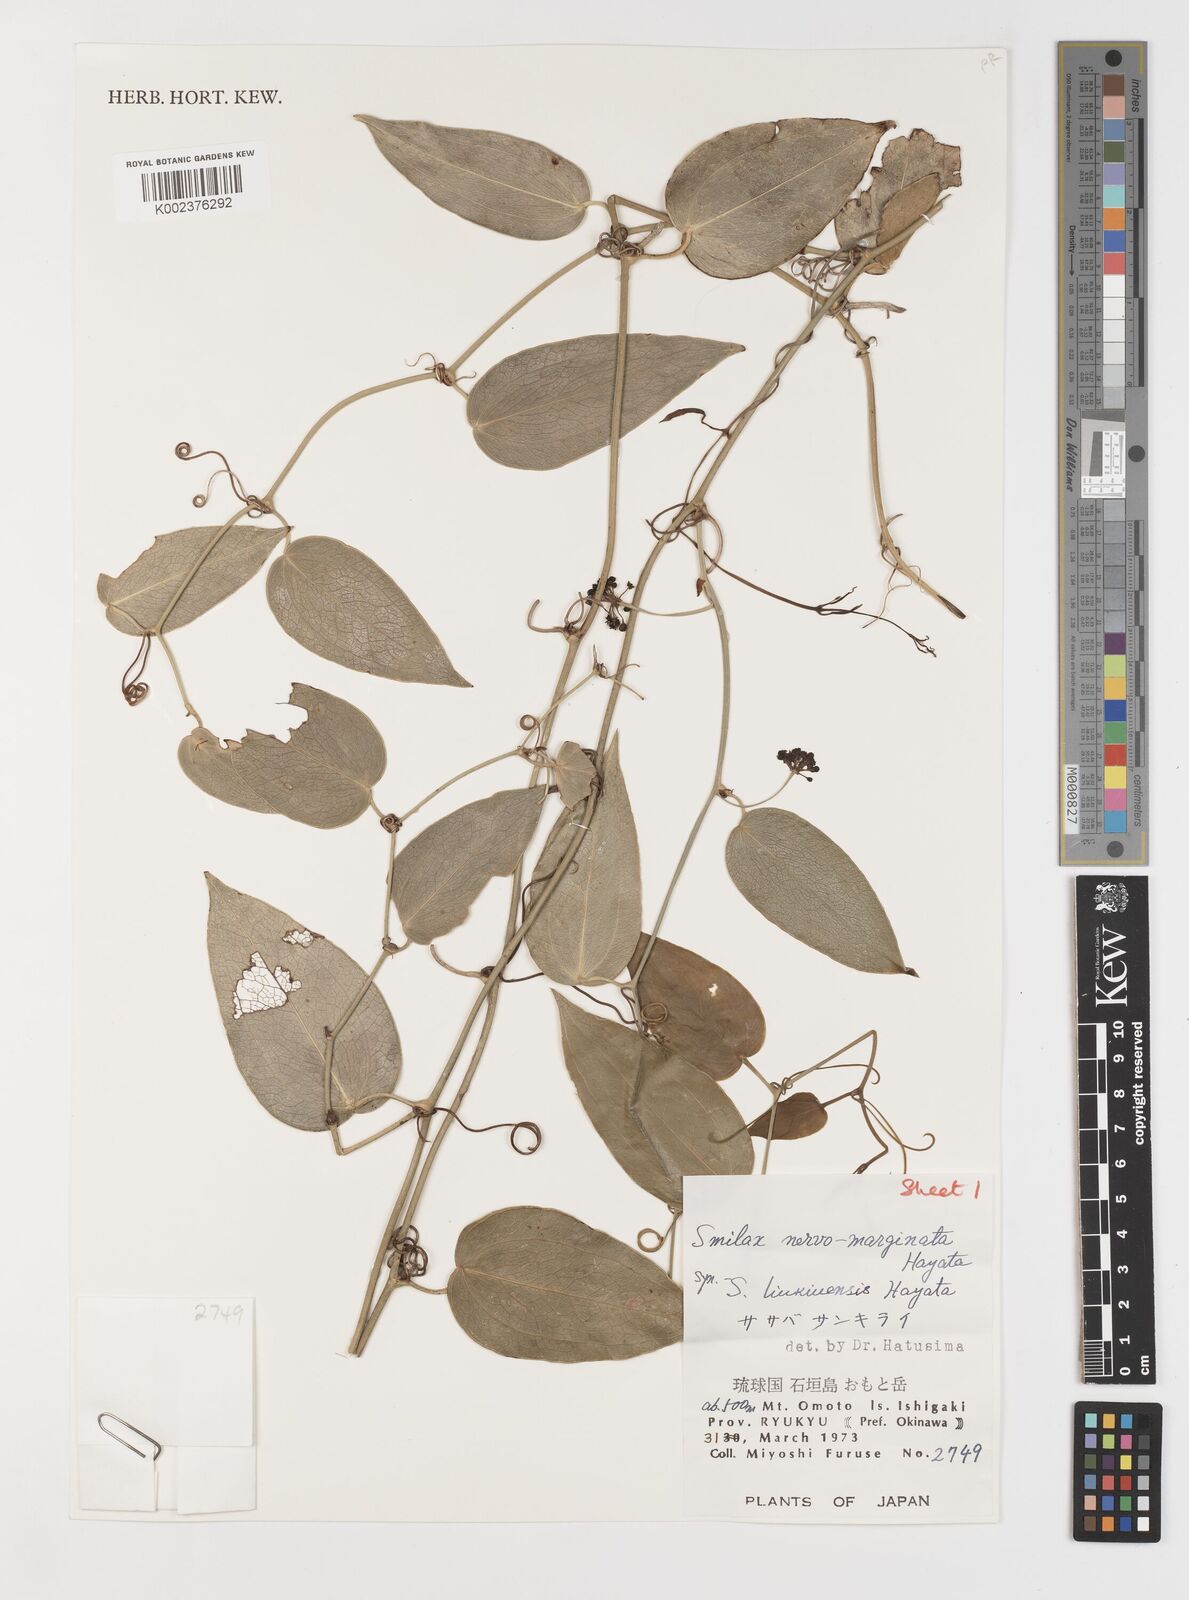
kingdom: Plantae
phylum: Tracheophyta
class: Liliopsida
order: Liliales
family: Smilacaceae
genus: Smilax
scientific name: Smilax nervomarginata
